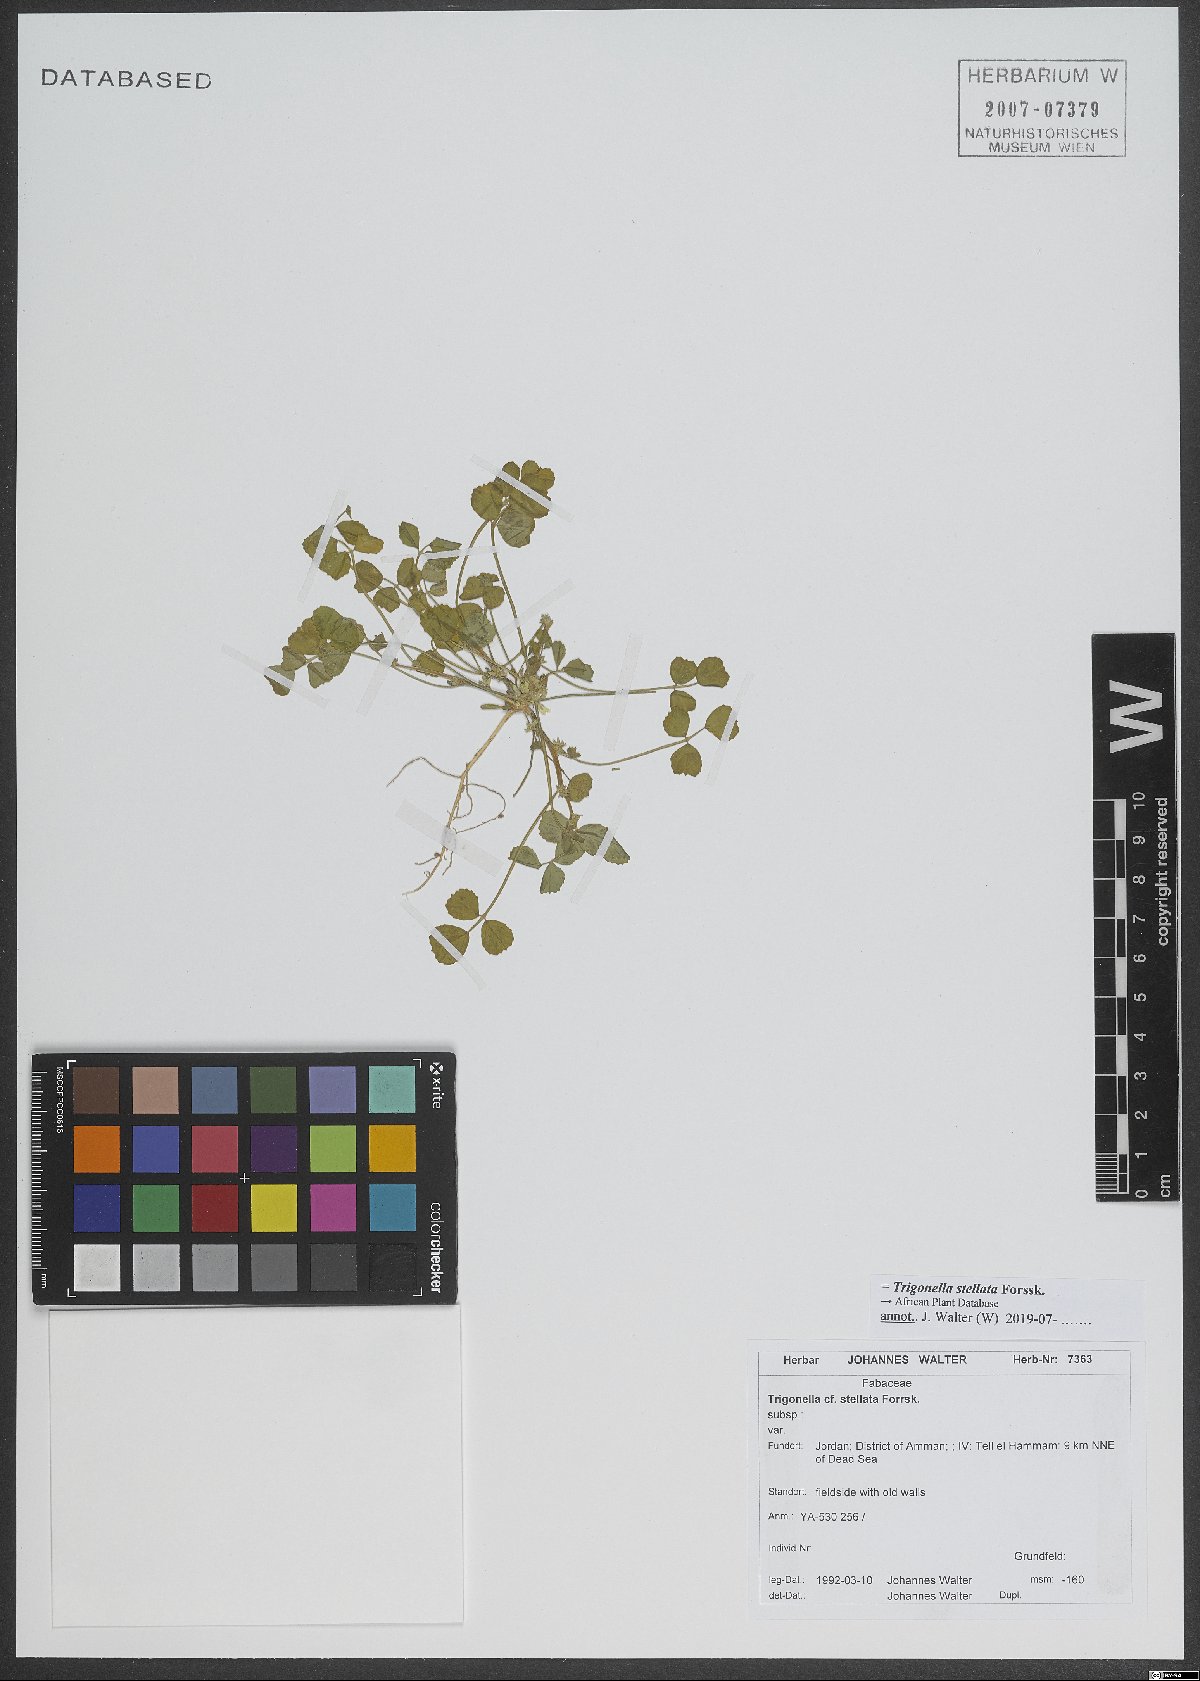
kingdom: Plantae
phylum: Tracheophyta
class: Magnoliopsida
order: Fabales
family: Fabaceae
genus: Trigonella
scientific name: Trigonella stellata
